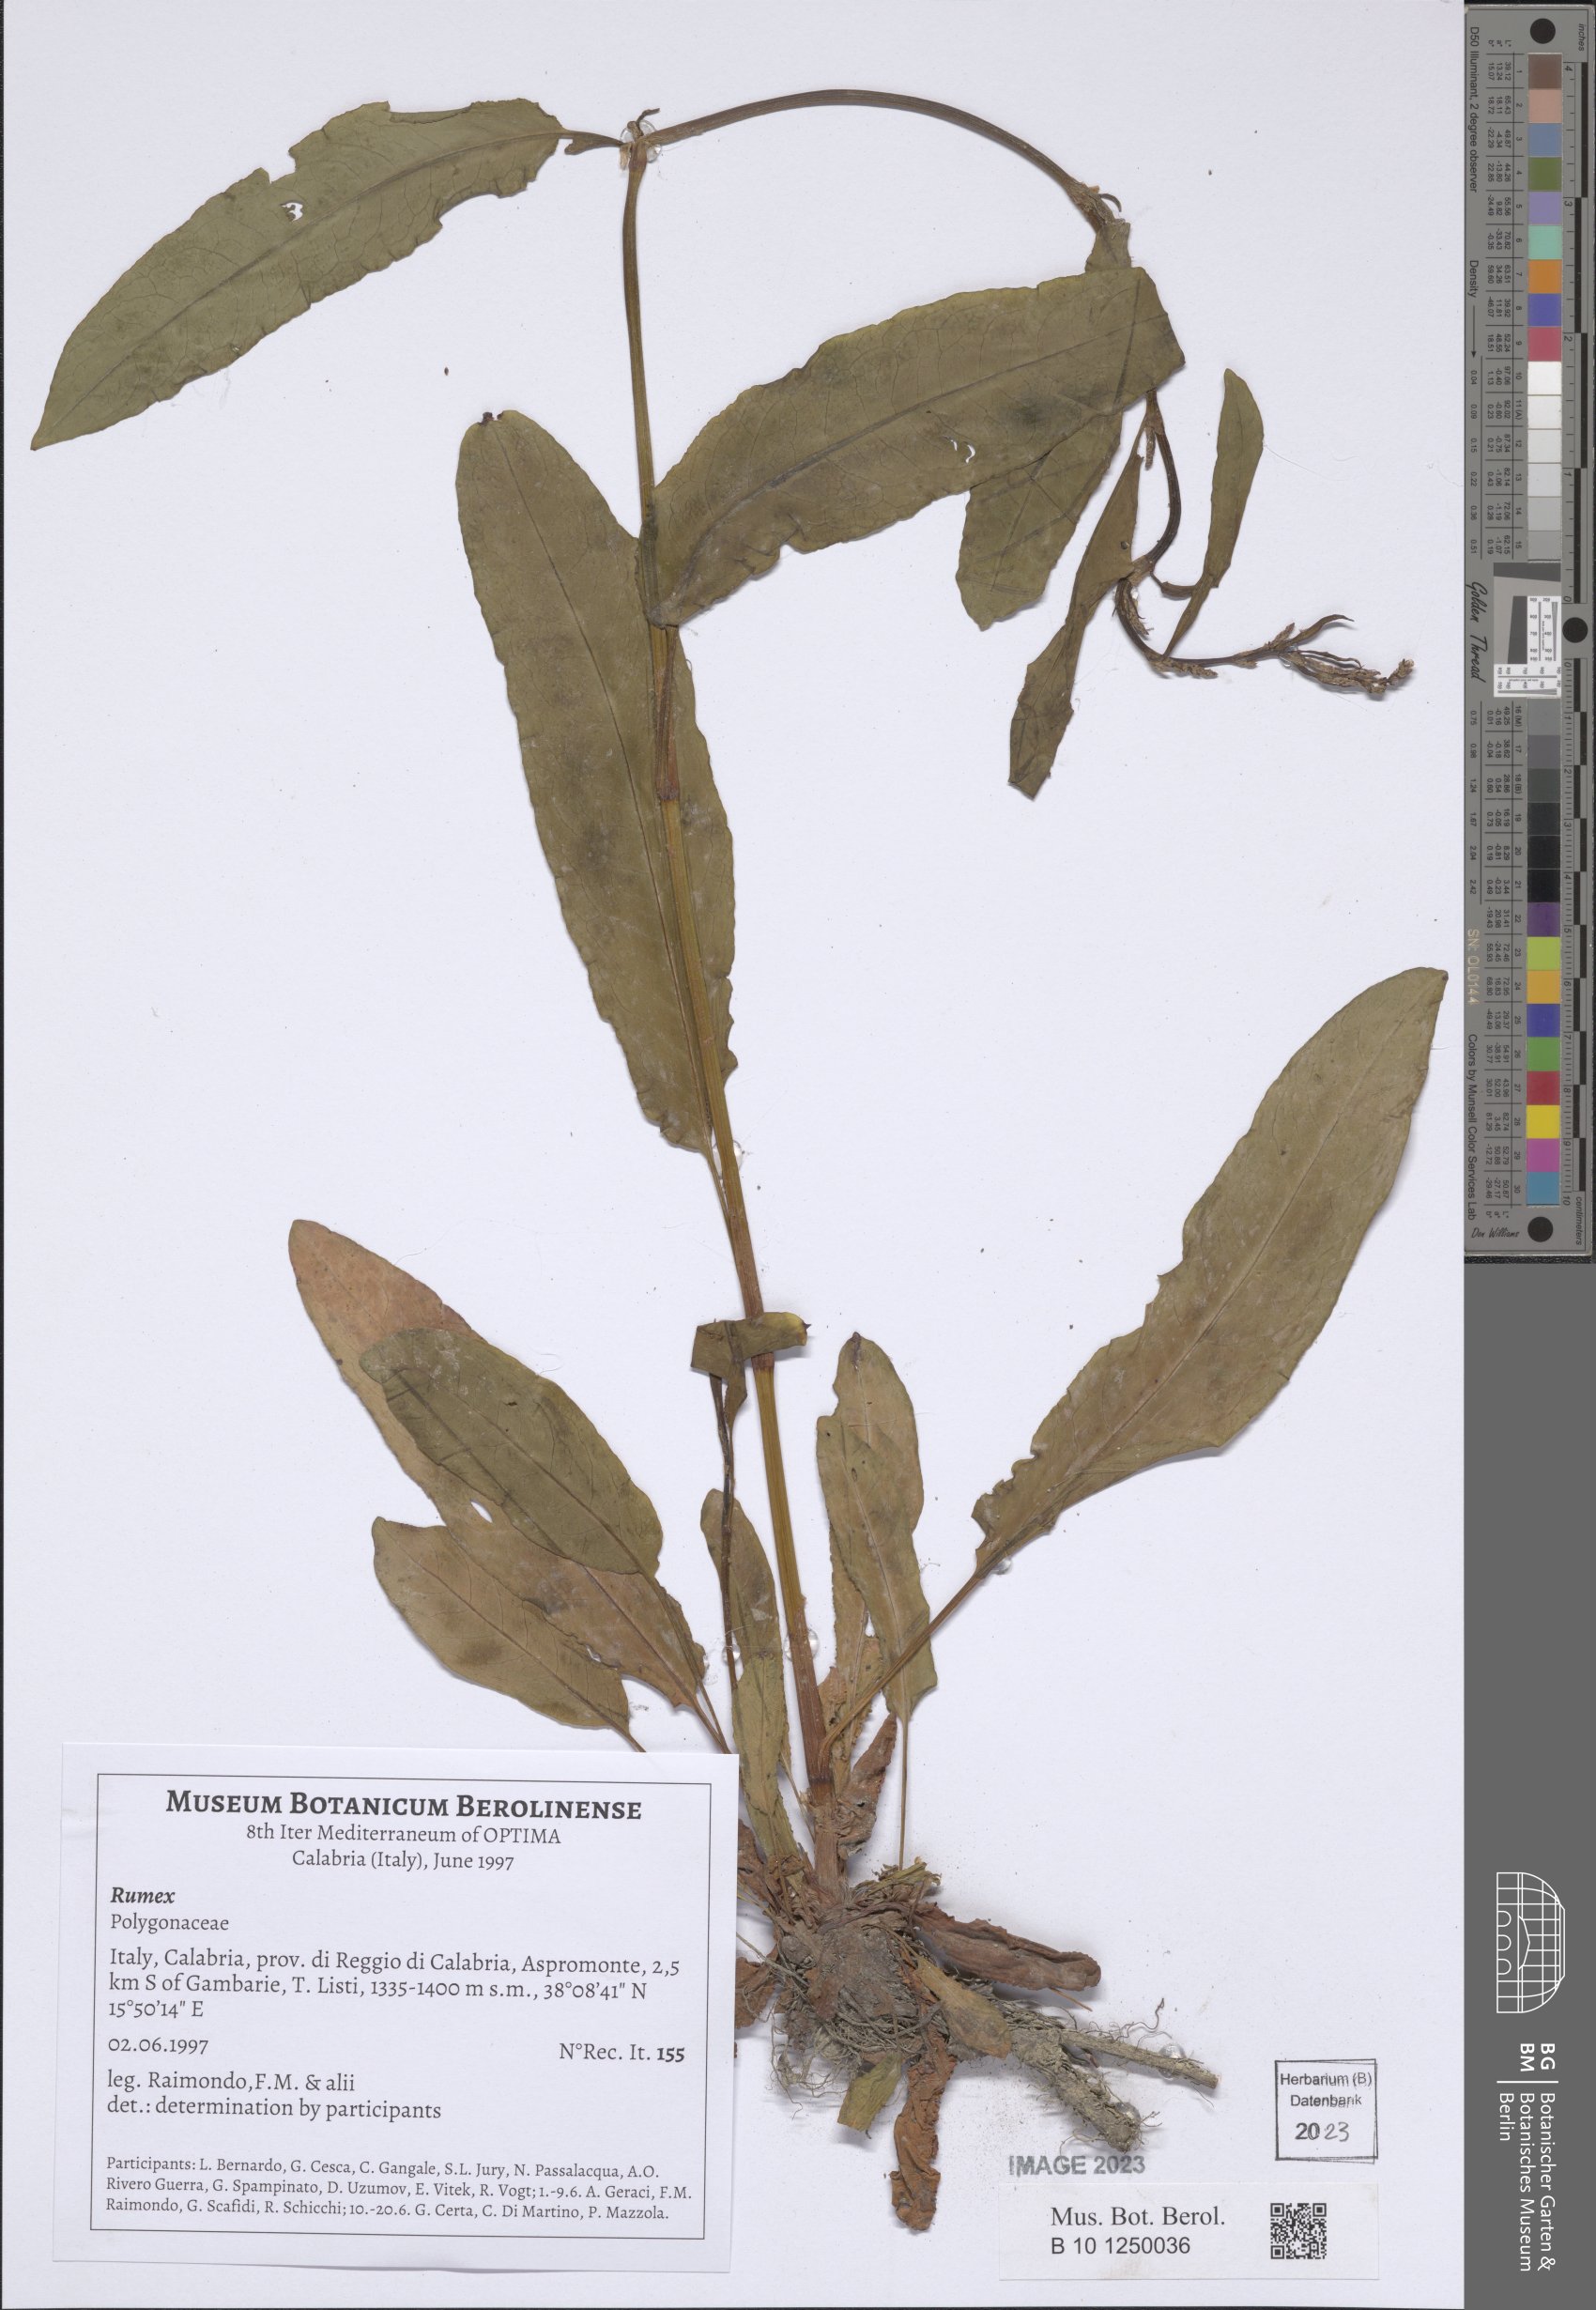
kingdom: Plantae
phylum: Tracheophyta
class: Magnoliopsida
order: Caryophyllales
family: Polygonaceae
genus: Rumex
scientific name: Rumex
